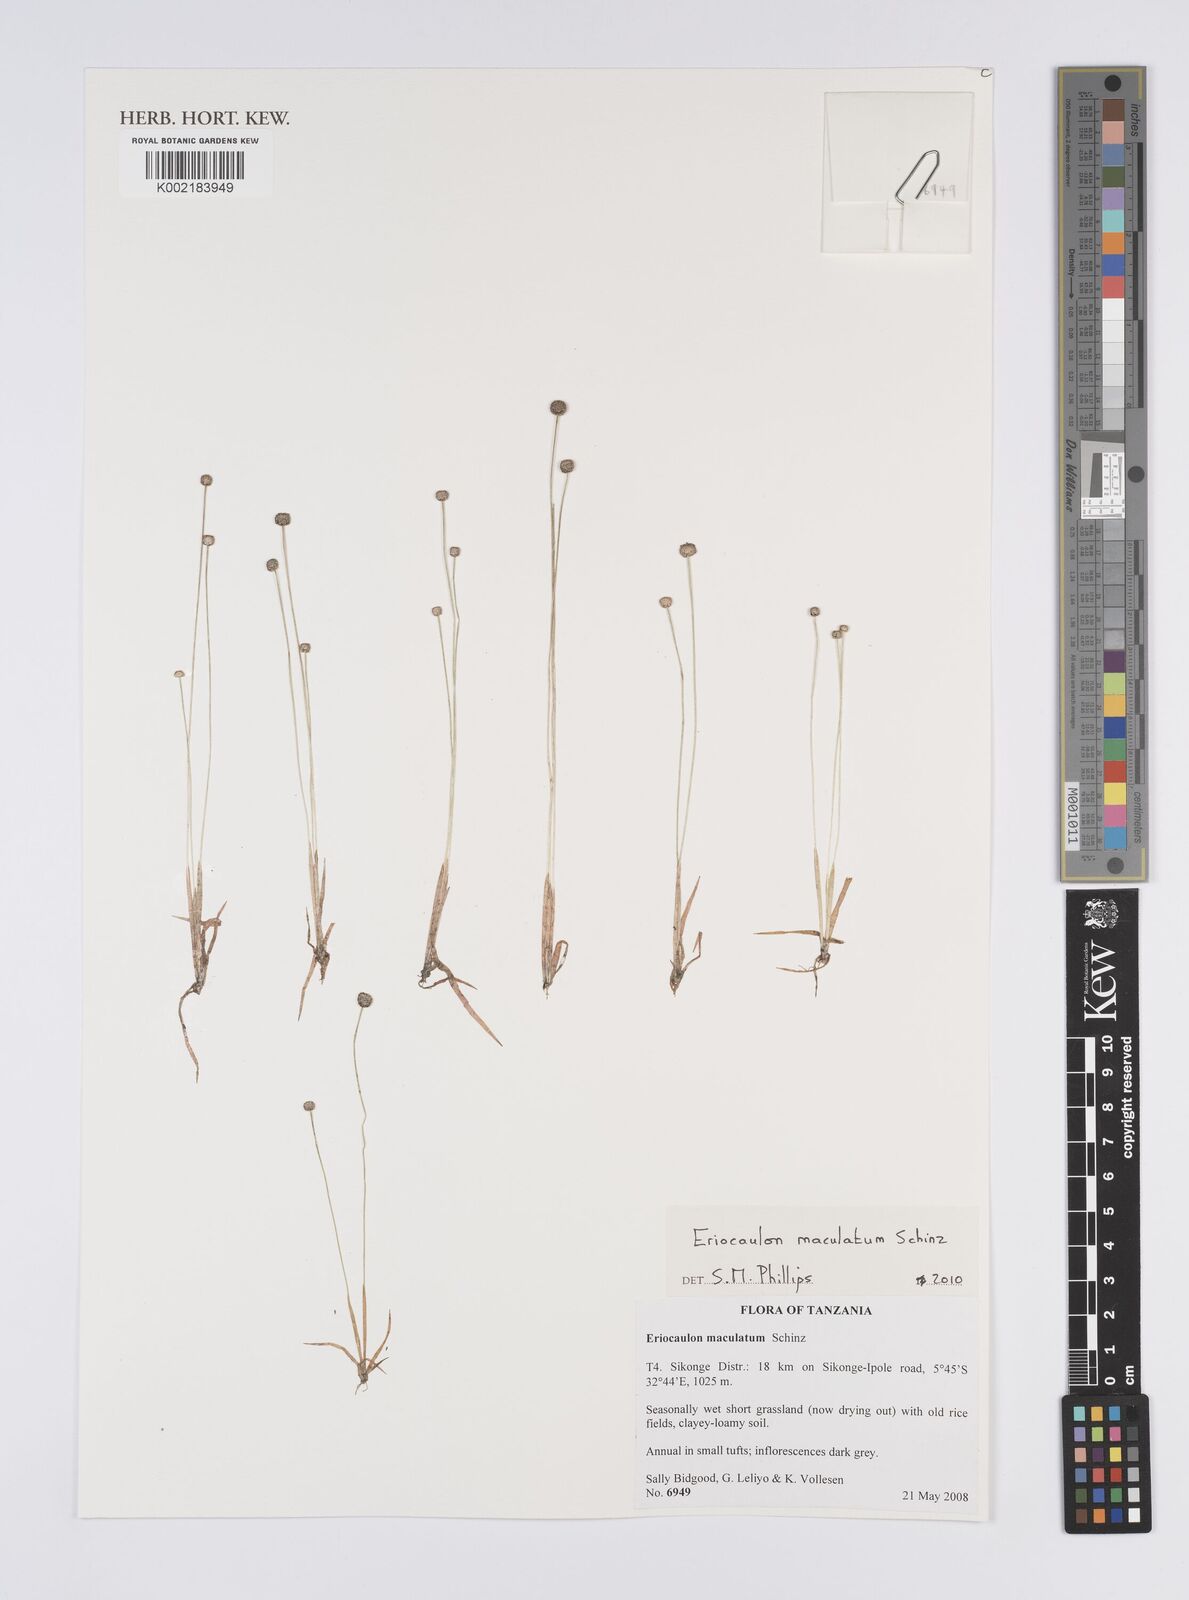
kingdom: Plantae
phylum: Tracheophyta
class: Liliopsida
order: Poales
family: Eriocaulaceae
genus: Eriocaulon
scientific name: Eriocaulon maculatum
